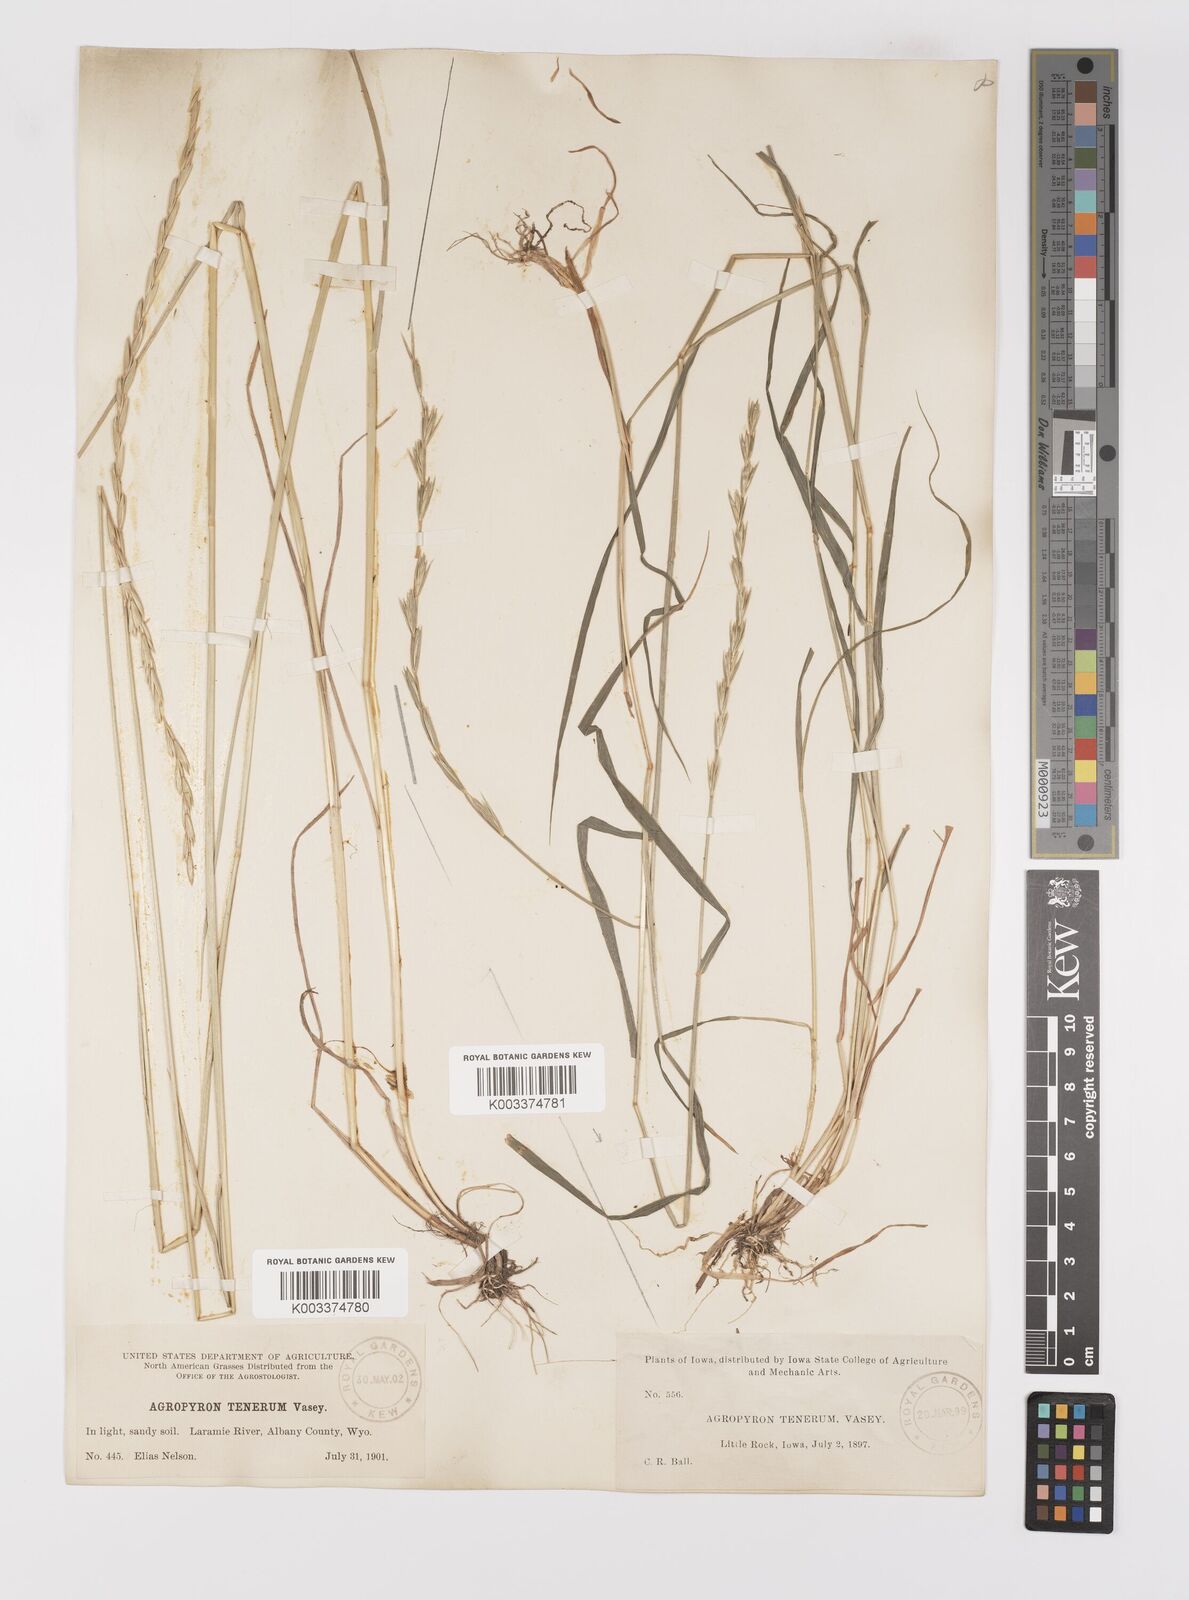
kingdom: Plantae
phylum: Tracheophyta
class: Liliopsida
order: Poales
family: Poaceae
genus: Elymus
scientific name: Elymus violaceus
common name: Arctic wheatgrass
